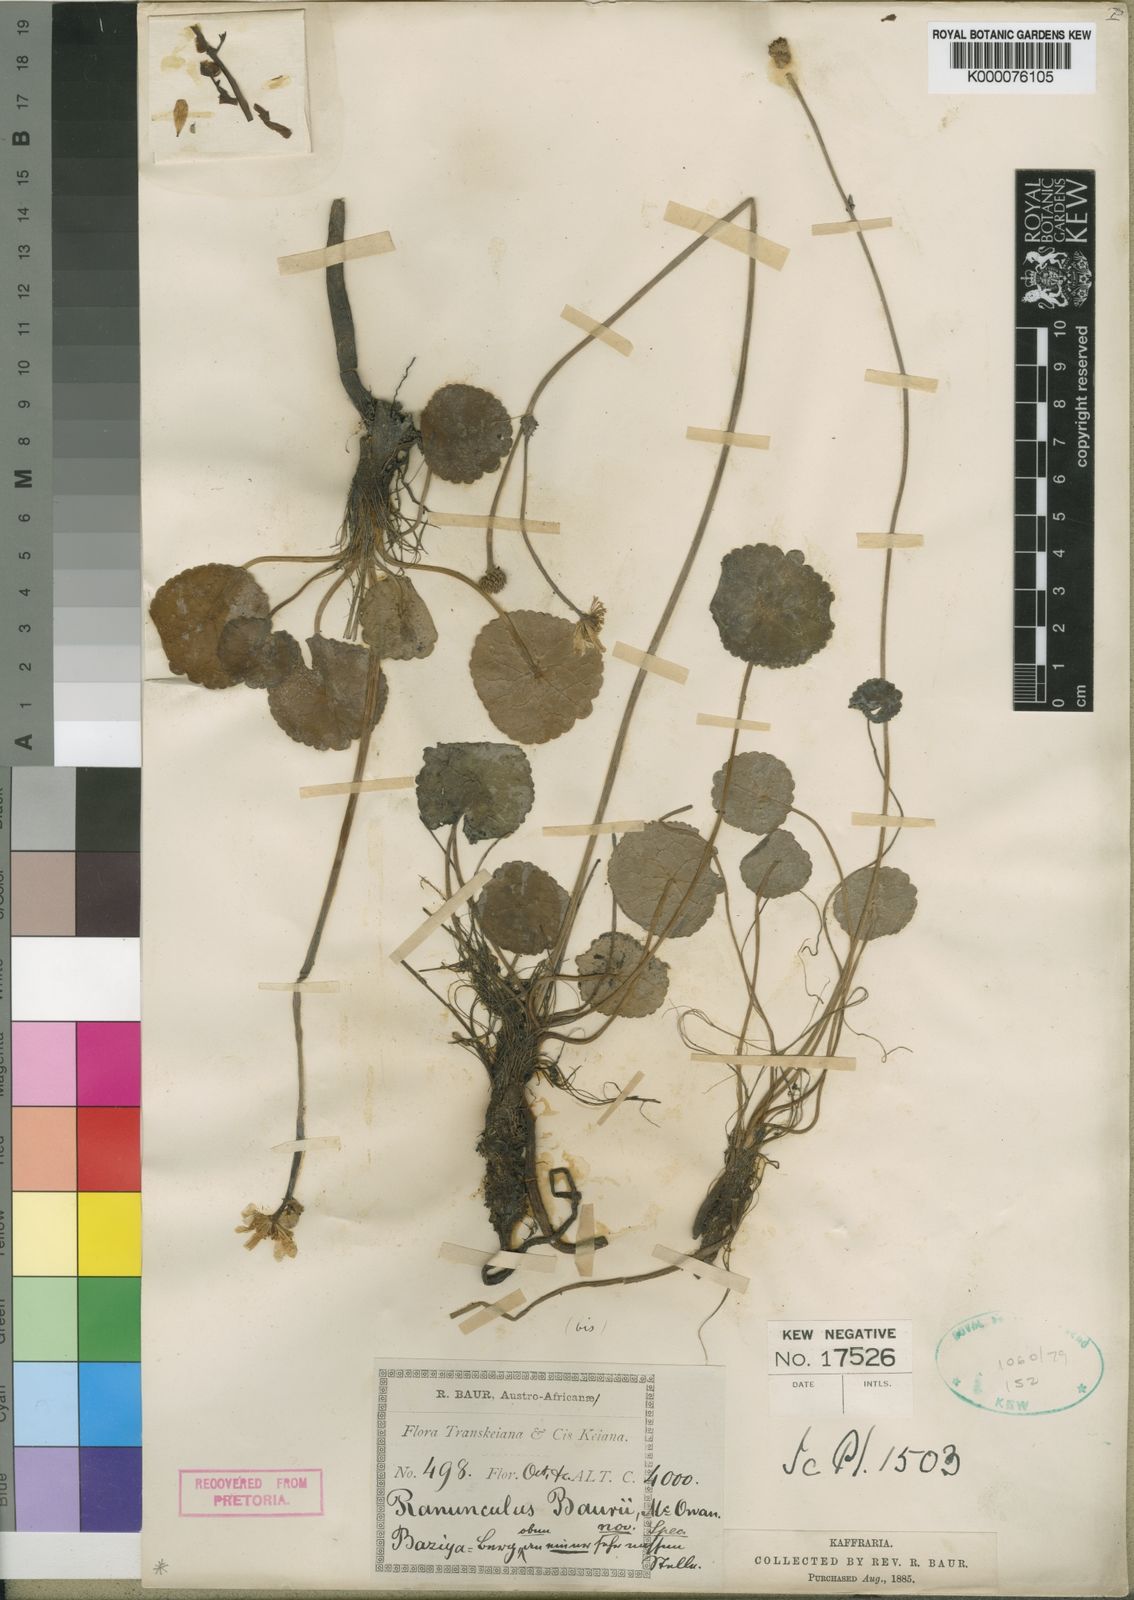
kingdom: Plantae
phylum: Tracheophyta
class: Magnoliopsida
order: Ranunculales
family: Ranunculaceae
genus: Peltocalathos
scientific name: Peltocalathos baurii
